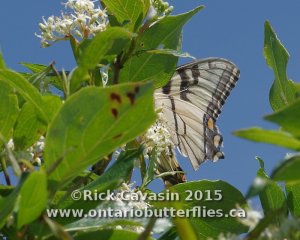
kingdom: Animalia
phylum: Arthropoda
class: Insecta
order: Lepidoptera
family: Papilionidae
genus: Pterourus
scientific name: Pterourus glaucus
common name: Eastern Tiger Swallowtail
